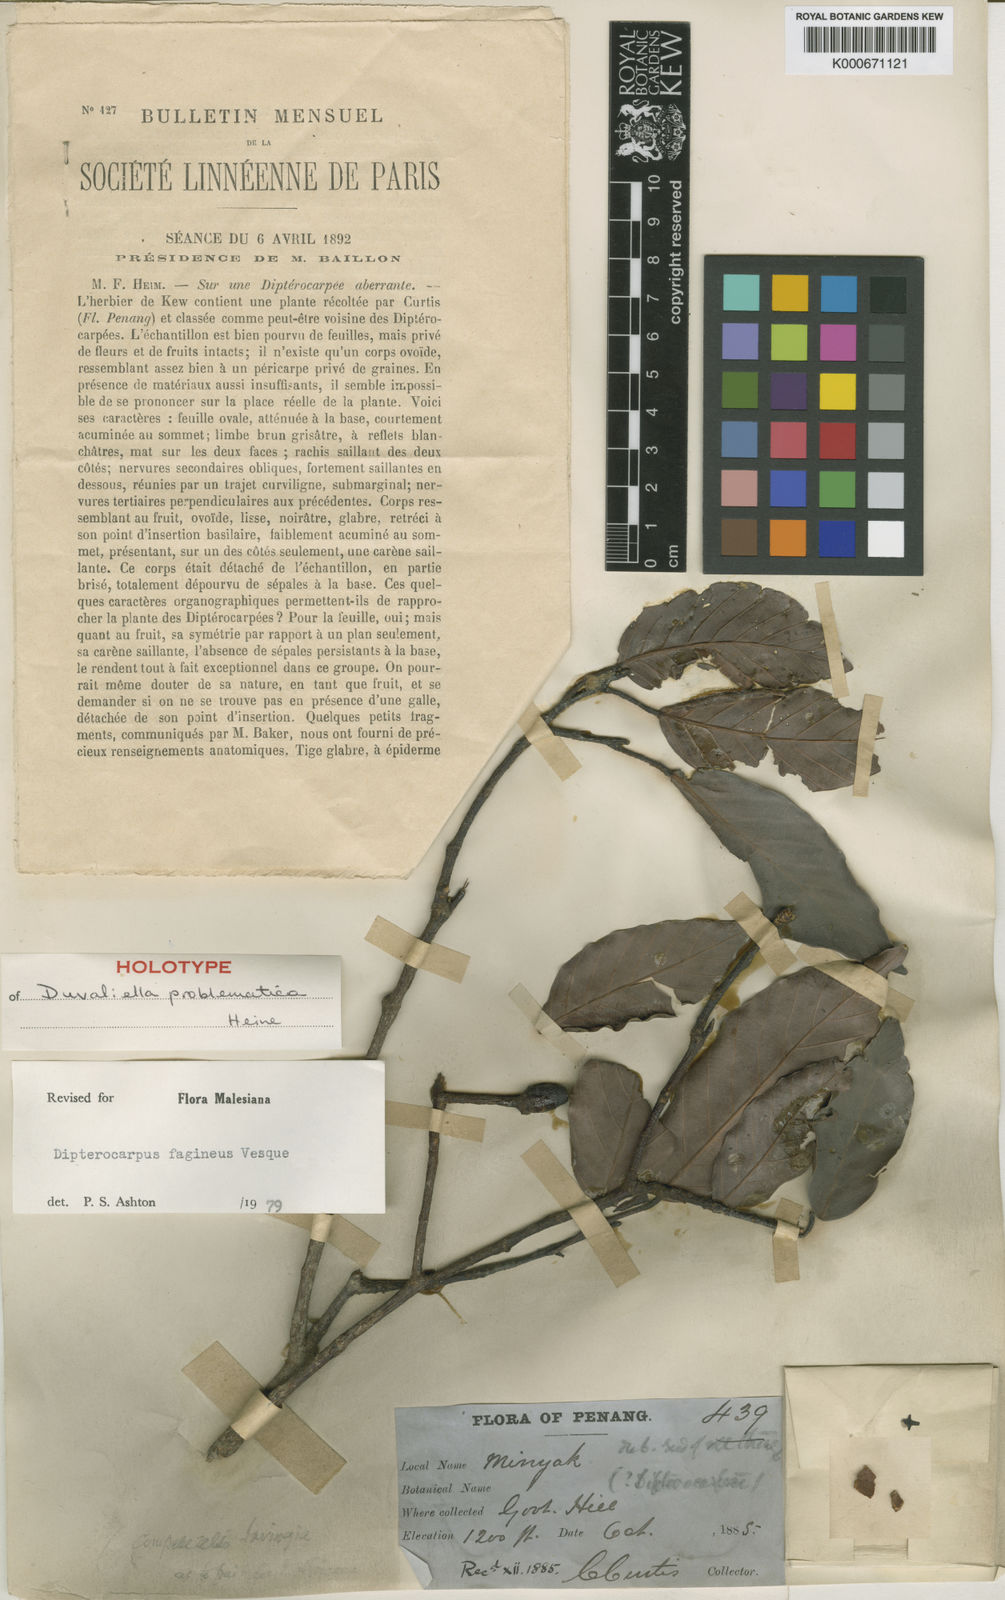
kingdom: Plantae
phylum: Tracheophyta
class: Magnoliopsida
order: Malvales
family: Dipterocarpaceae
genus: Dipterocarpus
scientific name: Dipterocarpus fagineus
